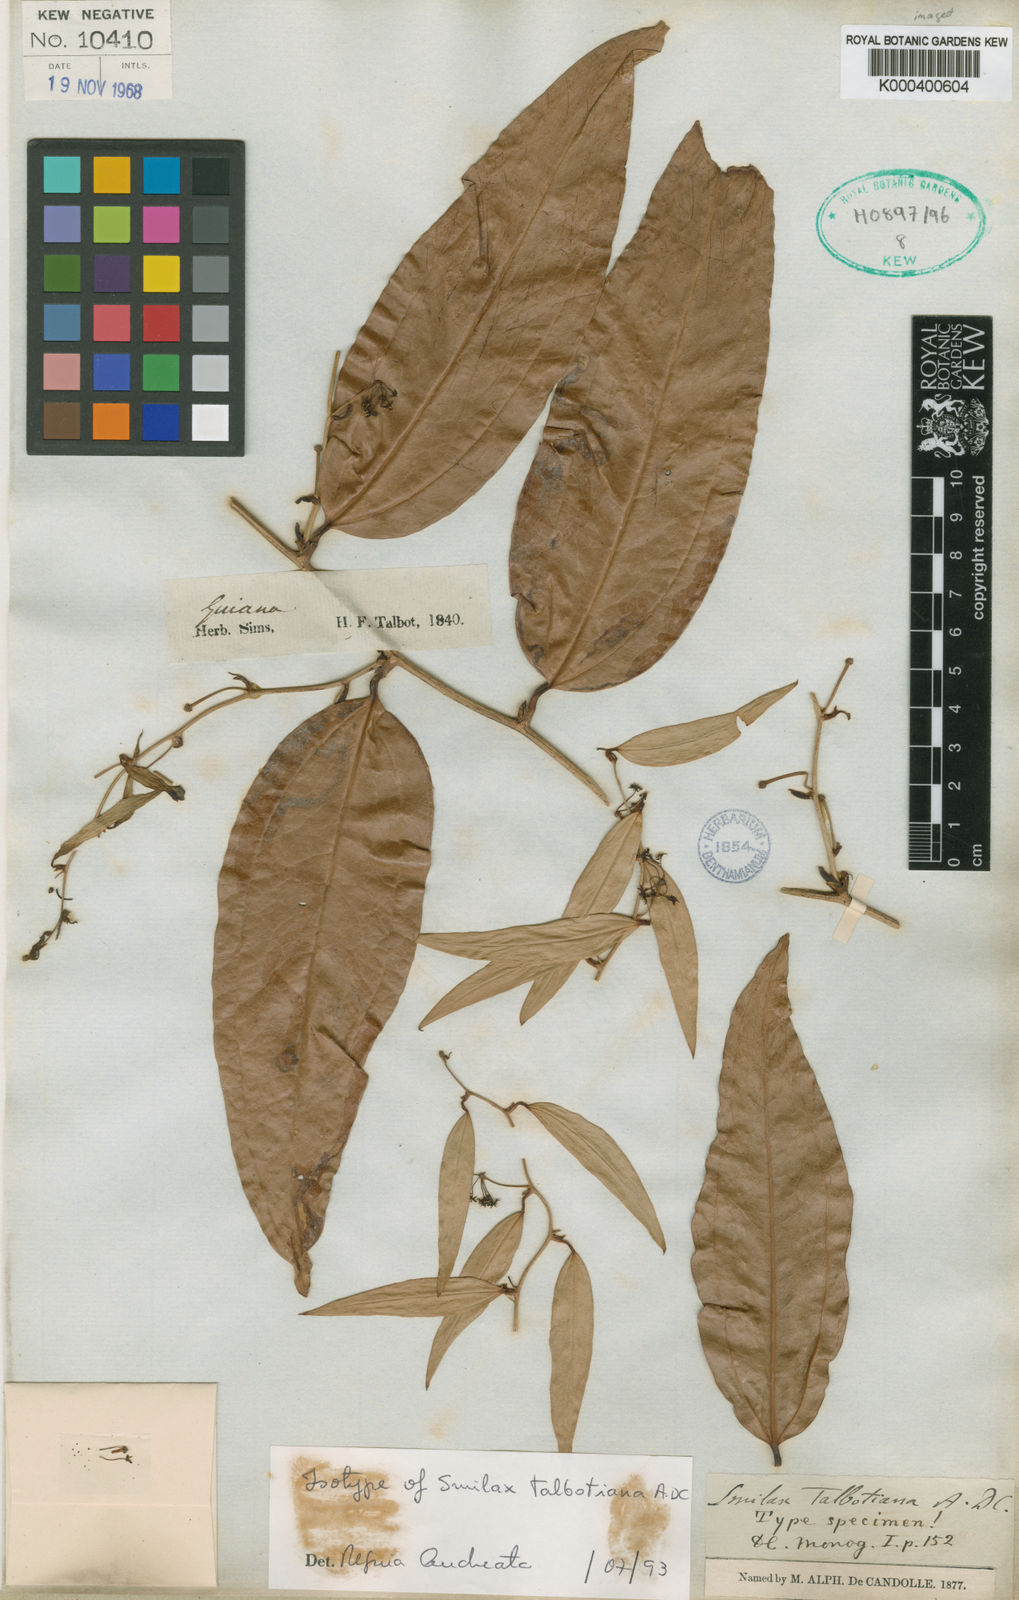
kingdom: Plantae
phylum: Tracheophyta
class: Liliopsida
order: Liliales
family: Smilacaceae
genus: Smilax
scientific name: Smilax talbotiana
